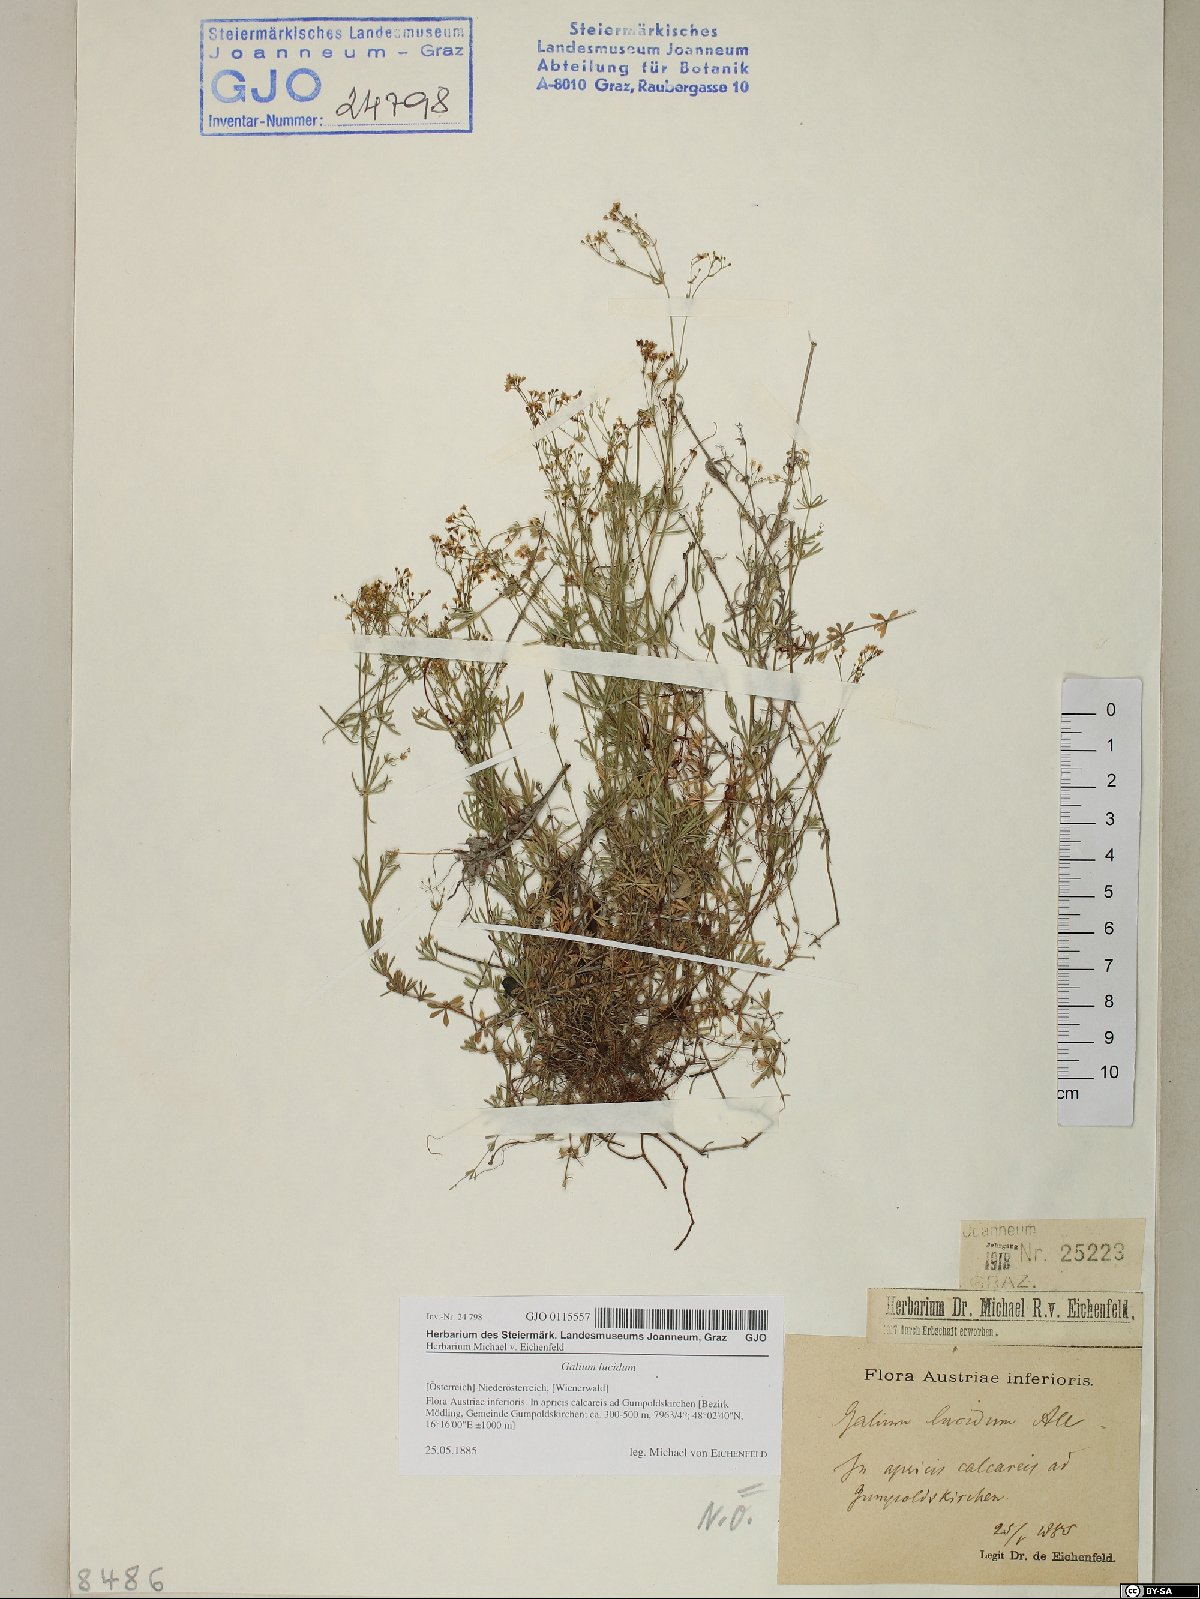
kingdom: Plantae
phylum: Tracheophyta
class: Magnoliopsida
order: Gentianales
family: Rubiaceae
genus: Galium
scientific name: Galium lucidum
